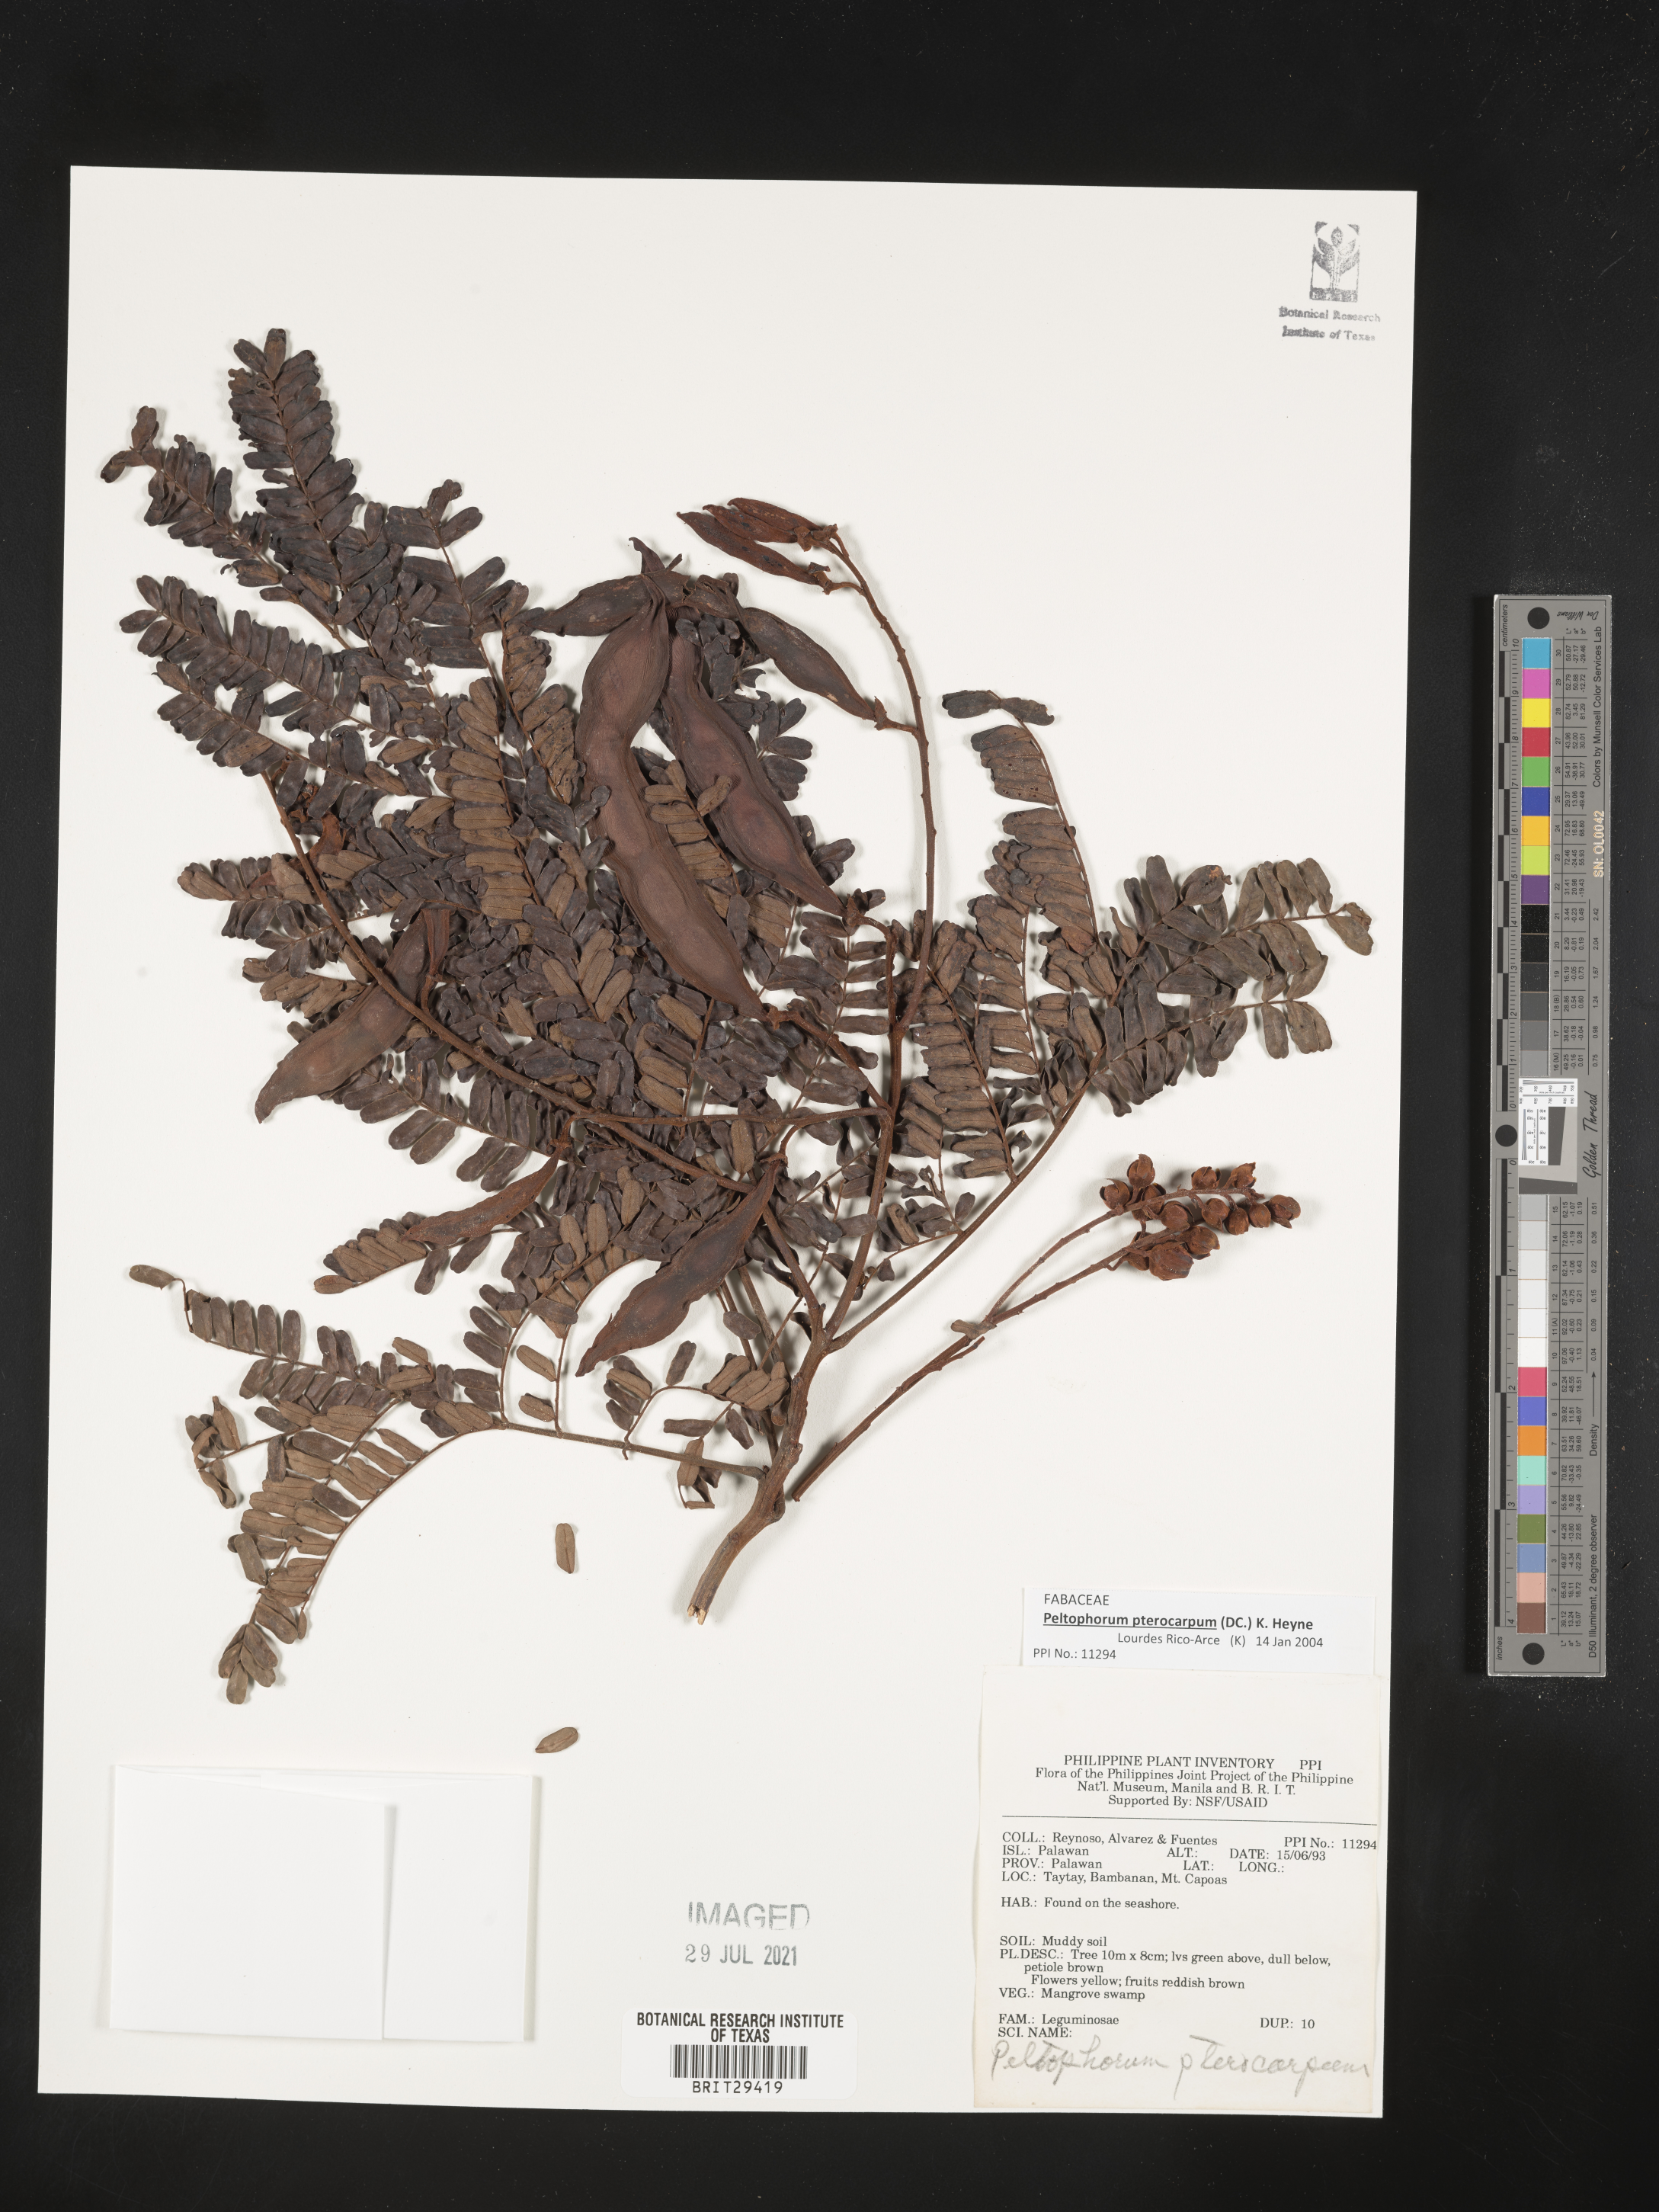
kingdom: Plantae
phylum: Tracheophyta
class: Magnoliopsida
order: Fabales
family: Fabaceae
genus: Peltophorum
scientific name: Peltophorum pterocarpum
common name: Yellow flame
